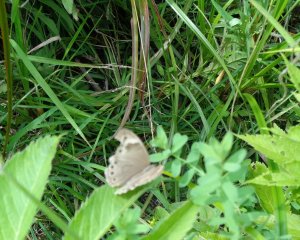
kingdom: Animalia
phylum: Arthropoda
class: Insecta
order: Lepidoptera
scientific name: Lepidoptera
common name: Butterflies
